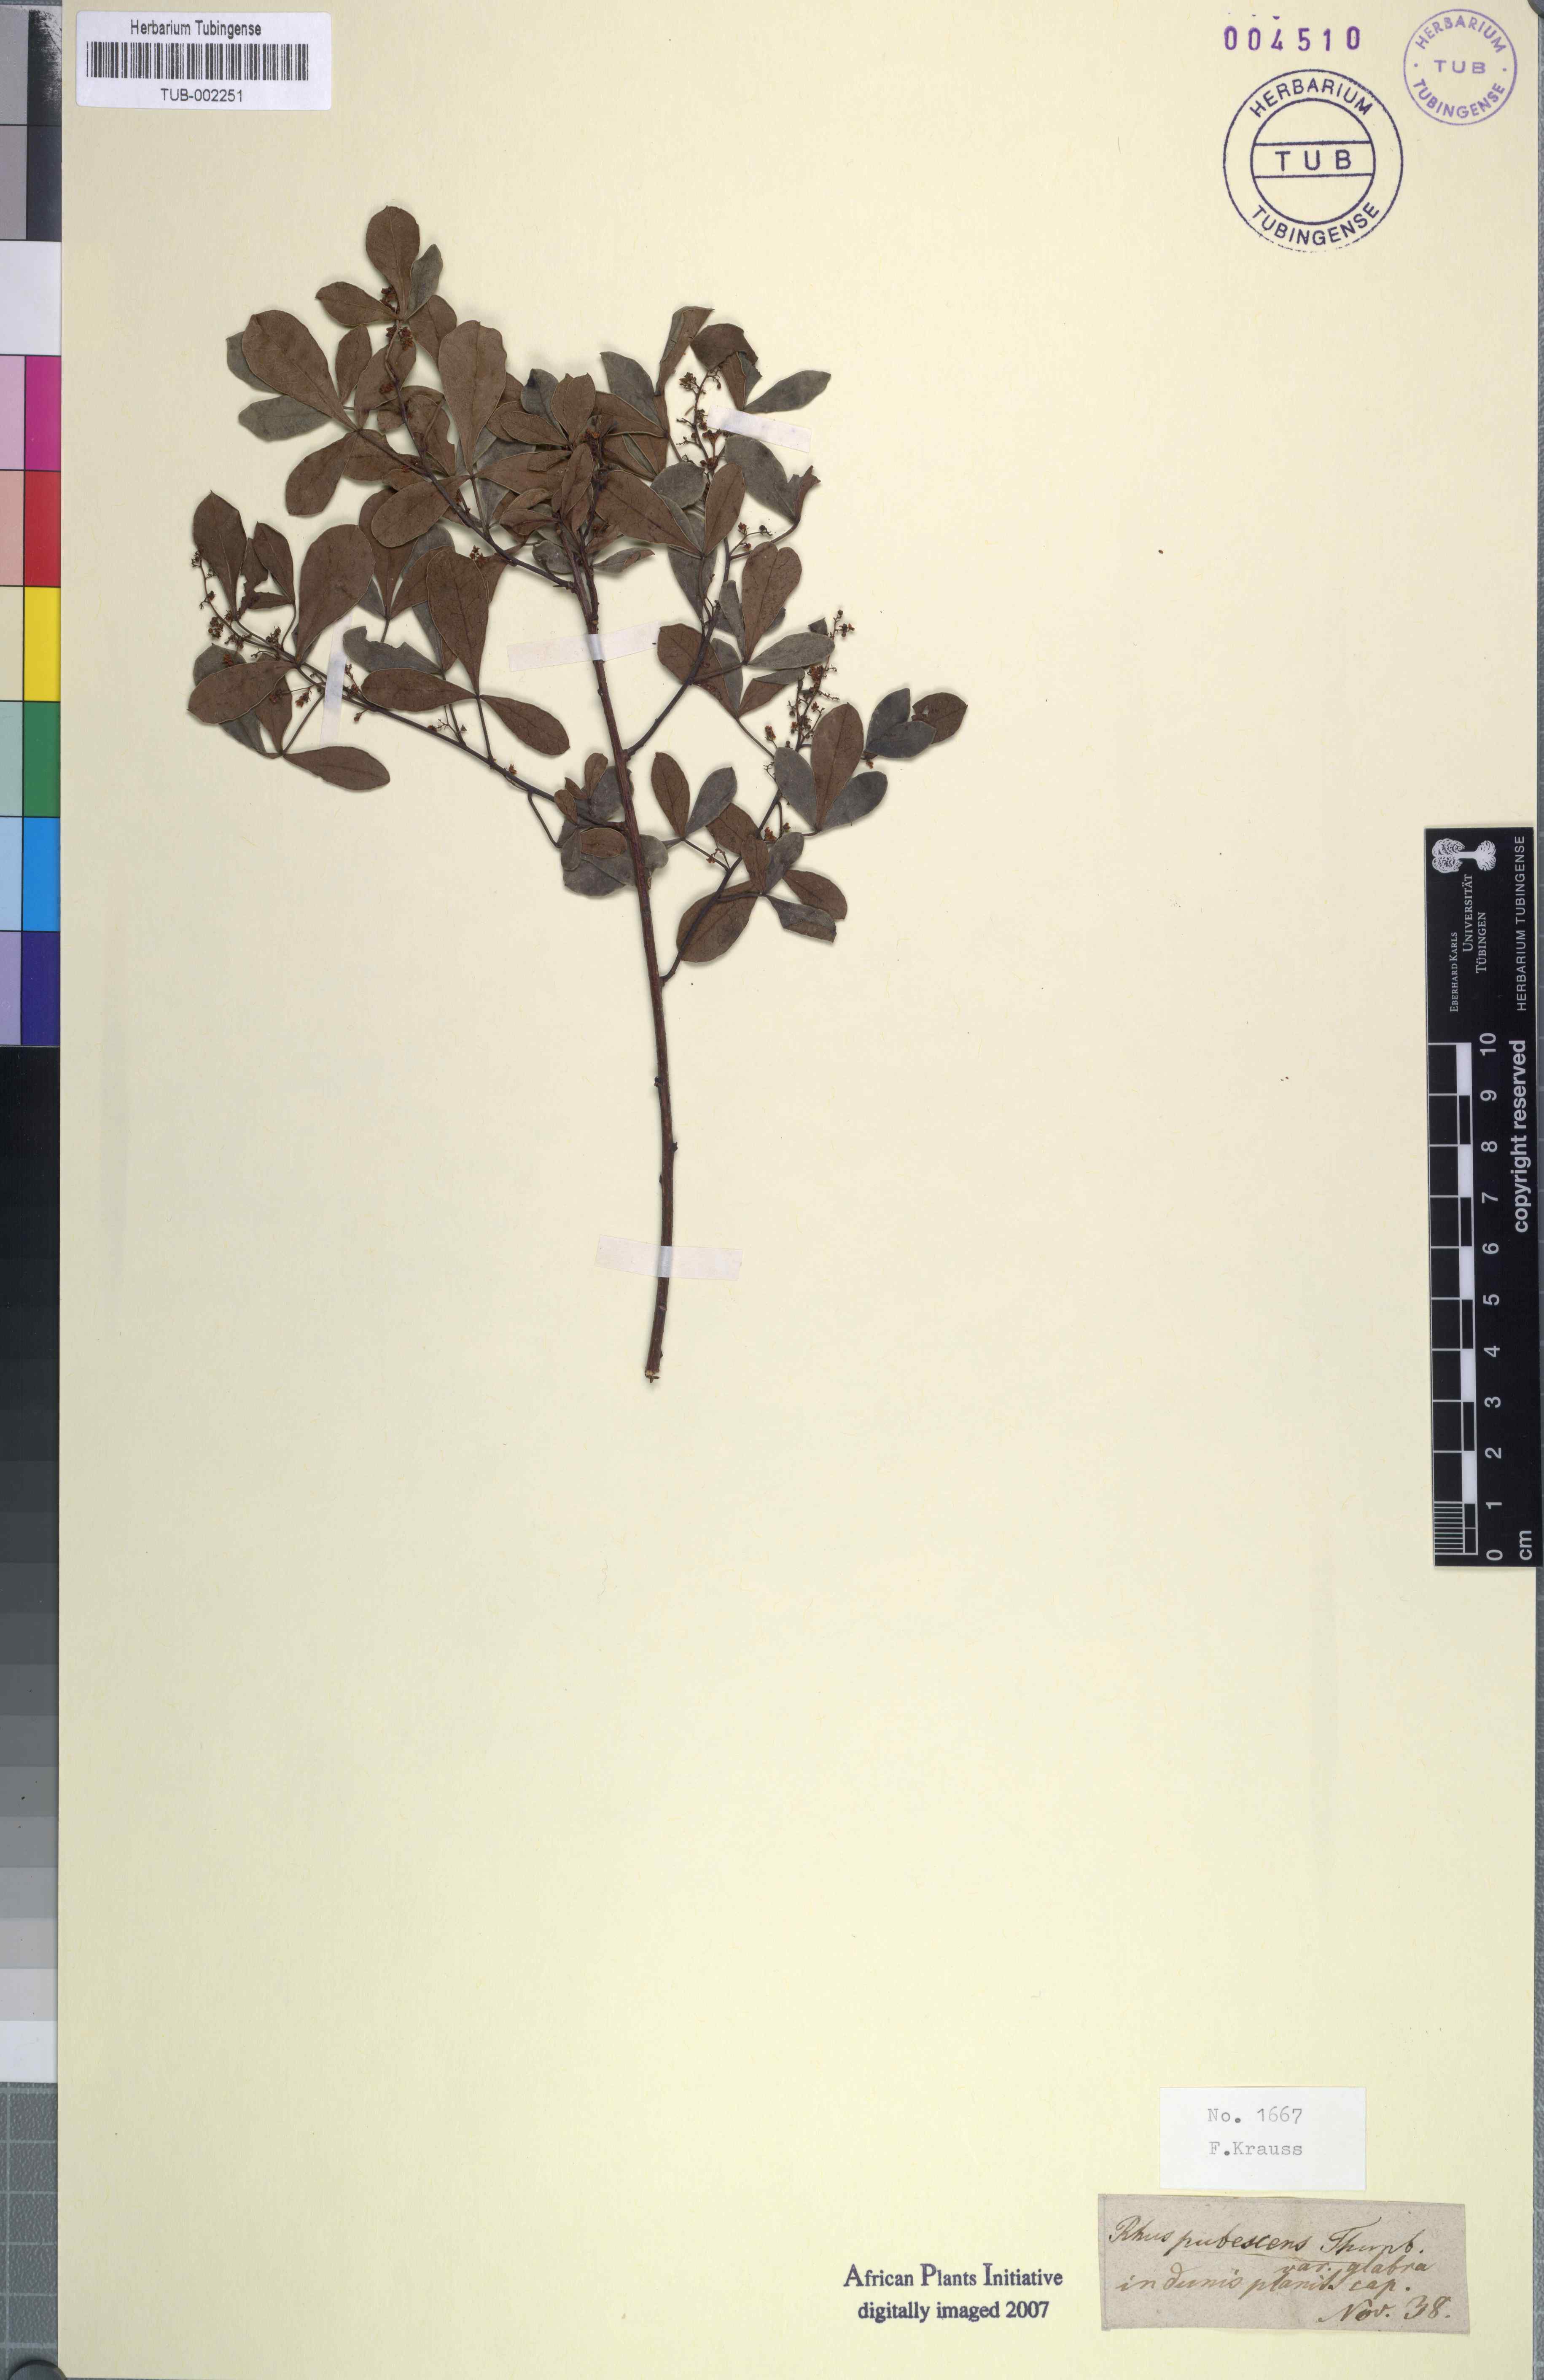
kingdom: Plantae
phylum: Tracheophyta
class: Magnoliopsida
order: Sapindales
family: Anacardiaceae
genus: Searsia
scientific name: Searsia laevigata
